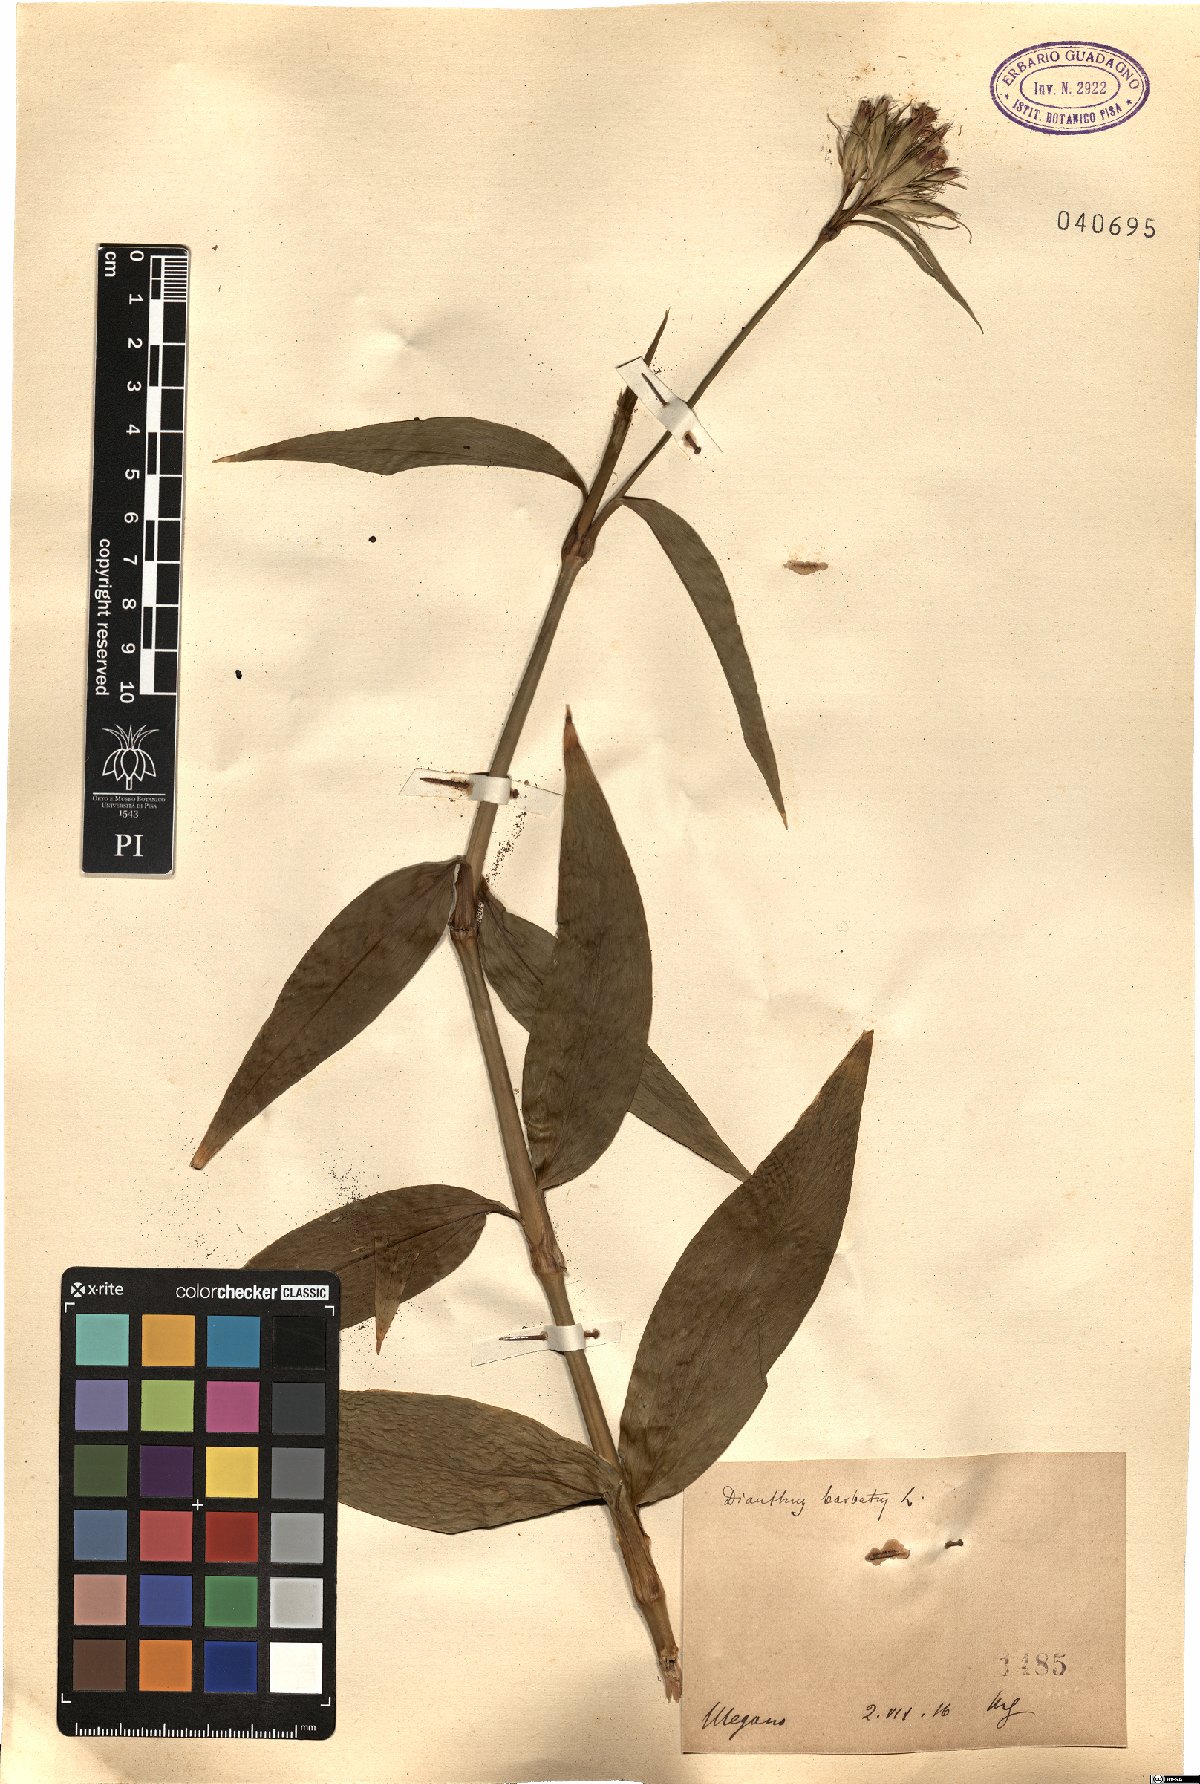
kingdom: Plantae
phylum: Tracheophyta
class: Magnoliopsida
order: Caryophyllales
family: Caryophyllaceae
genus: Dianthus
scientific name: Dianthus barbatus
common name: Sweet-william
